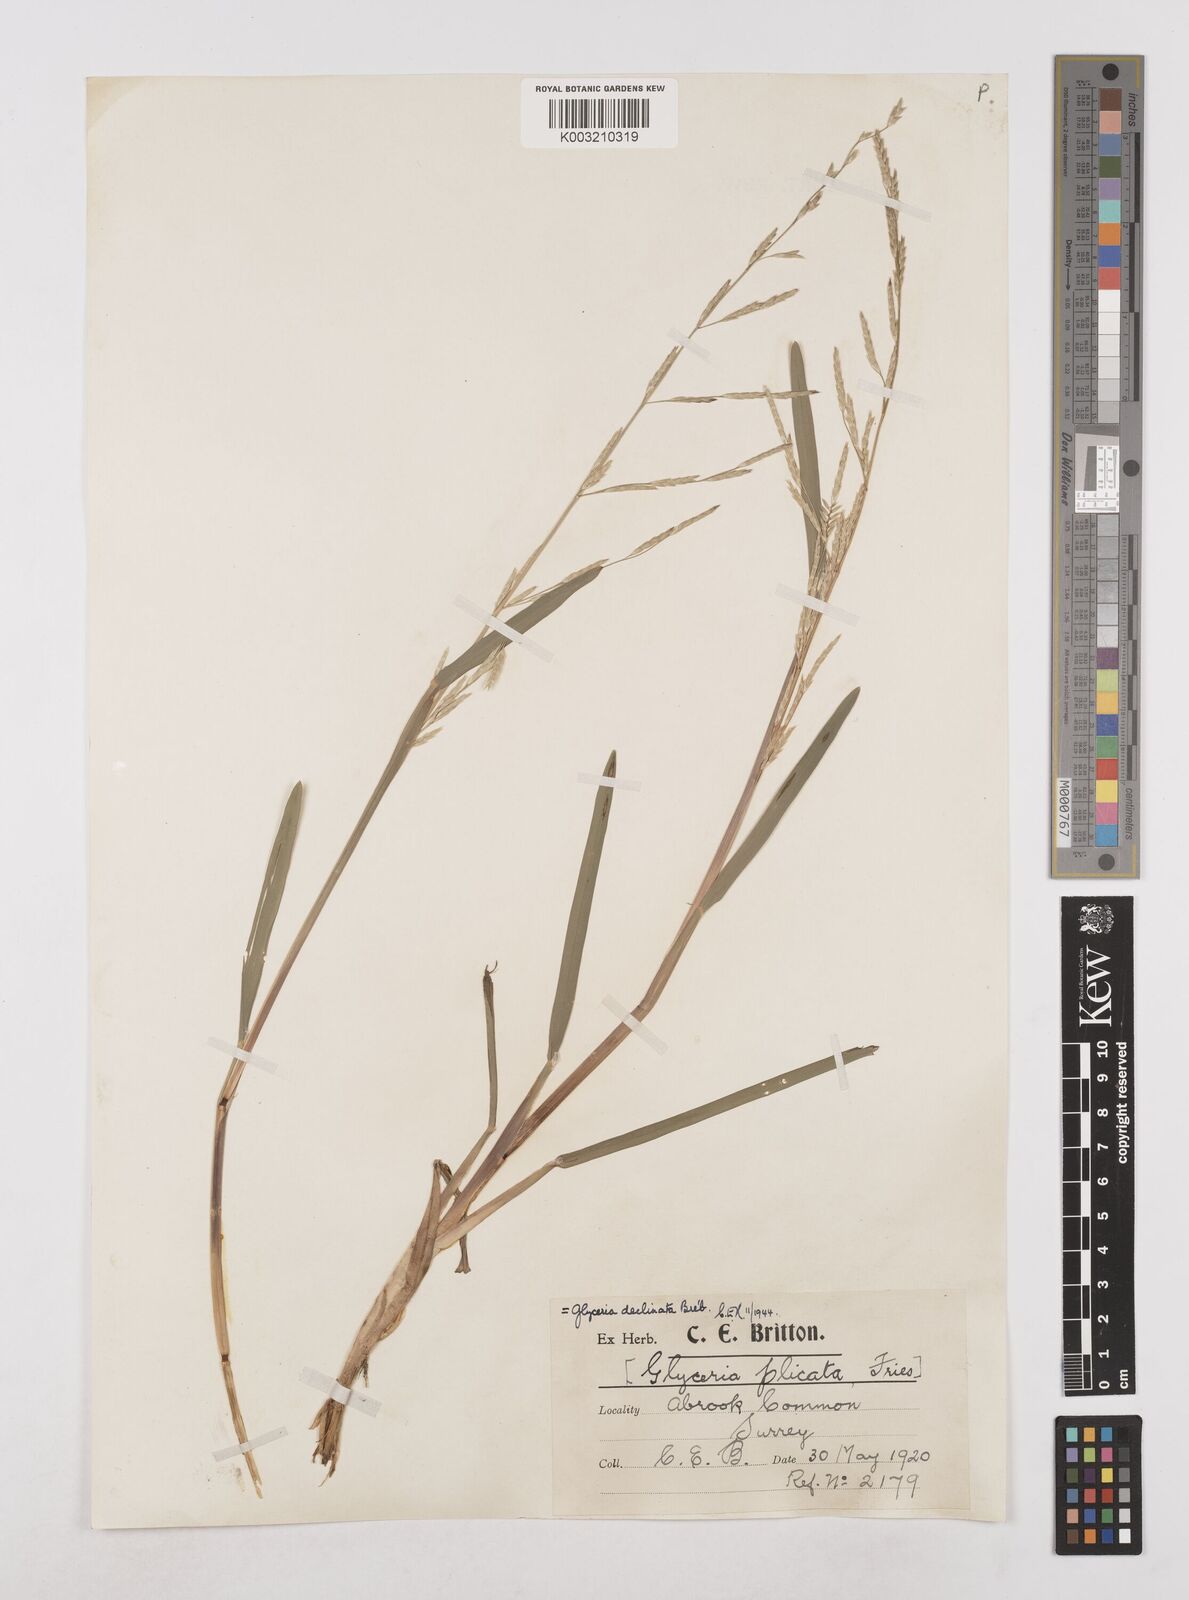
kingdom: Plantae
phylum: Tracheophyta
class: Liliopsida
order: Poales
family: Poaceae
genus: Glyceria
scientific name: Glyceria declinata
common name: Small sweet-grass
